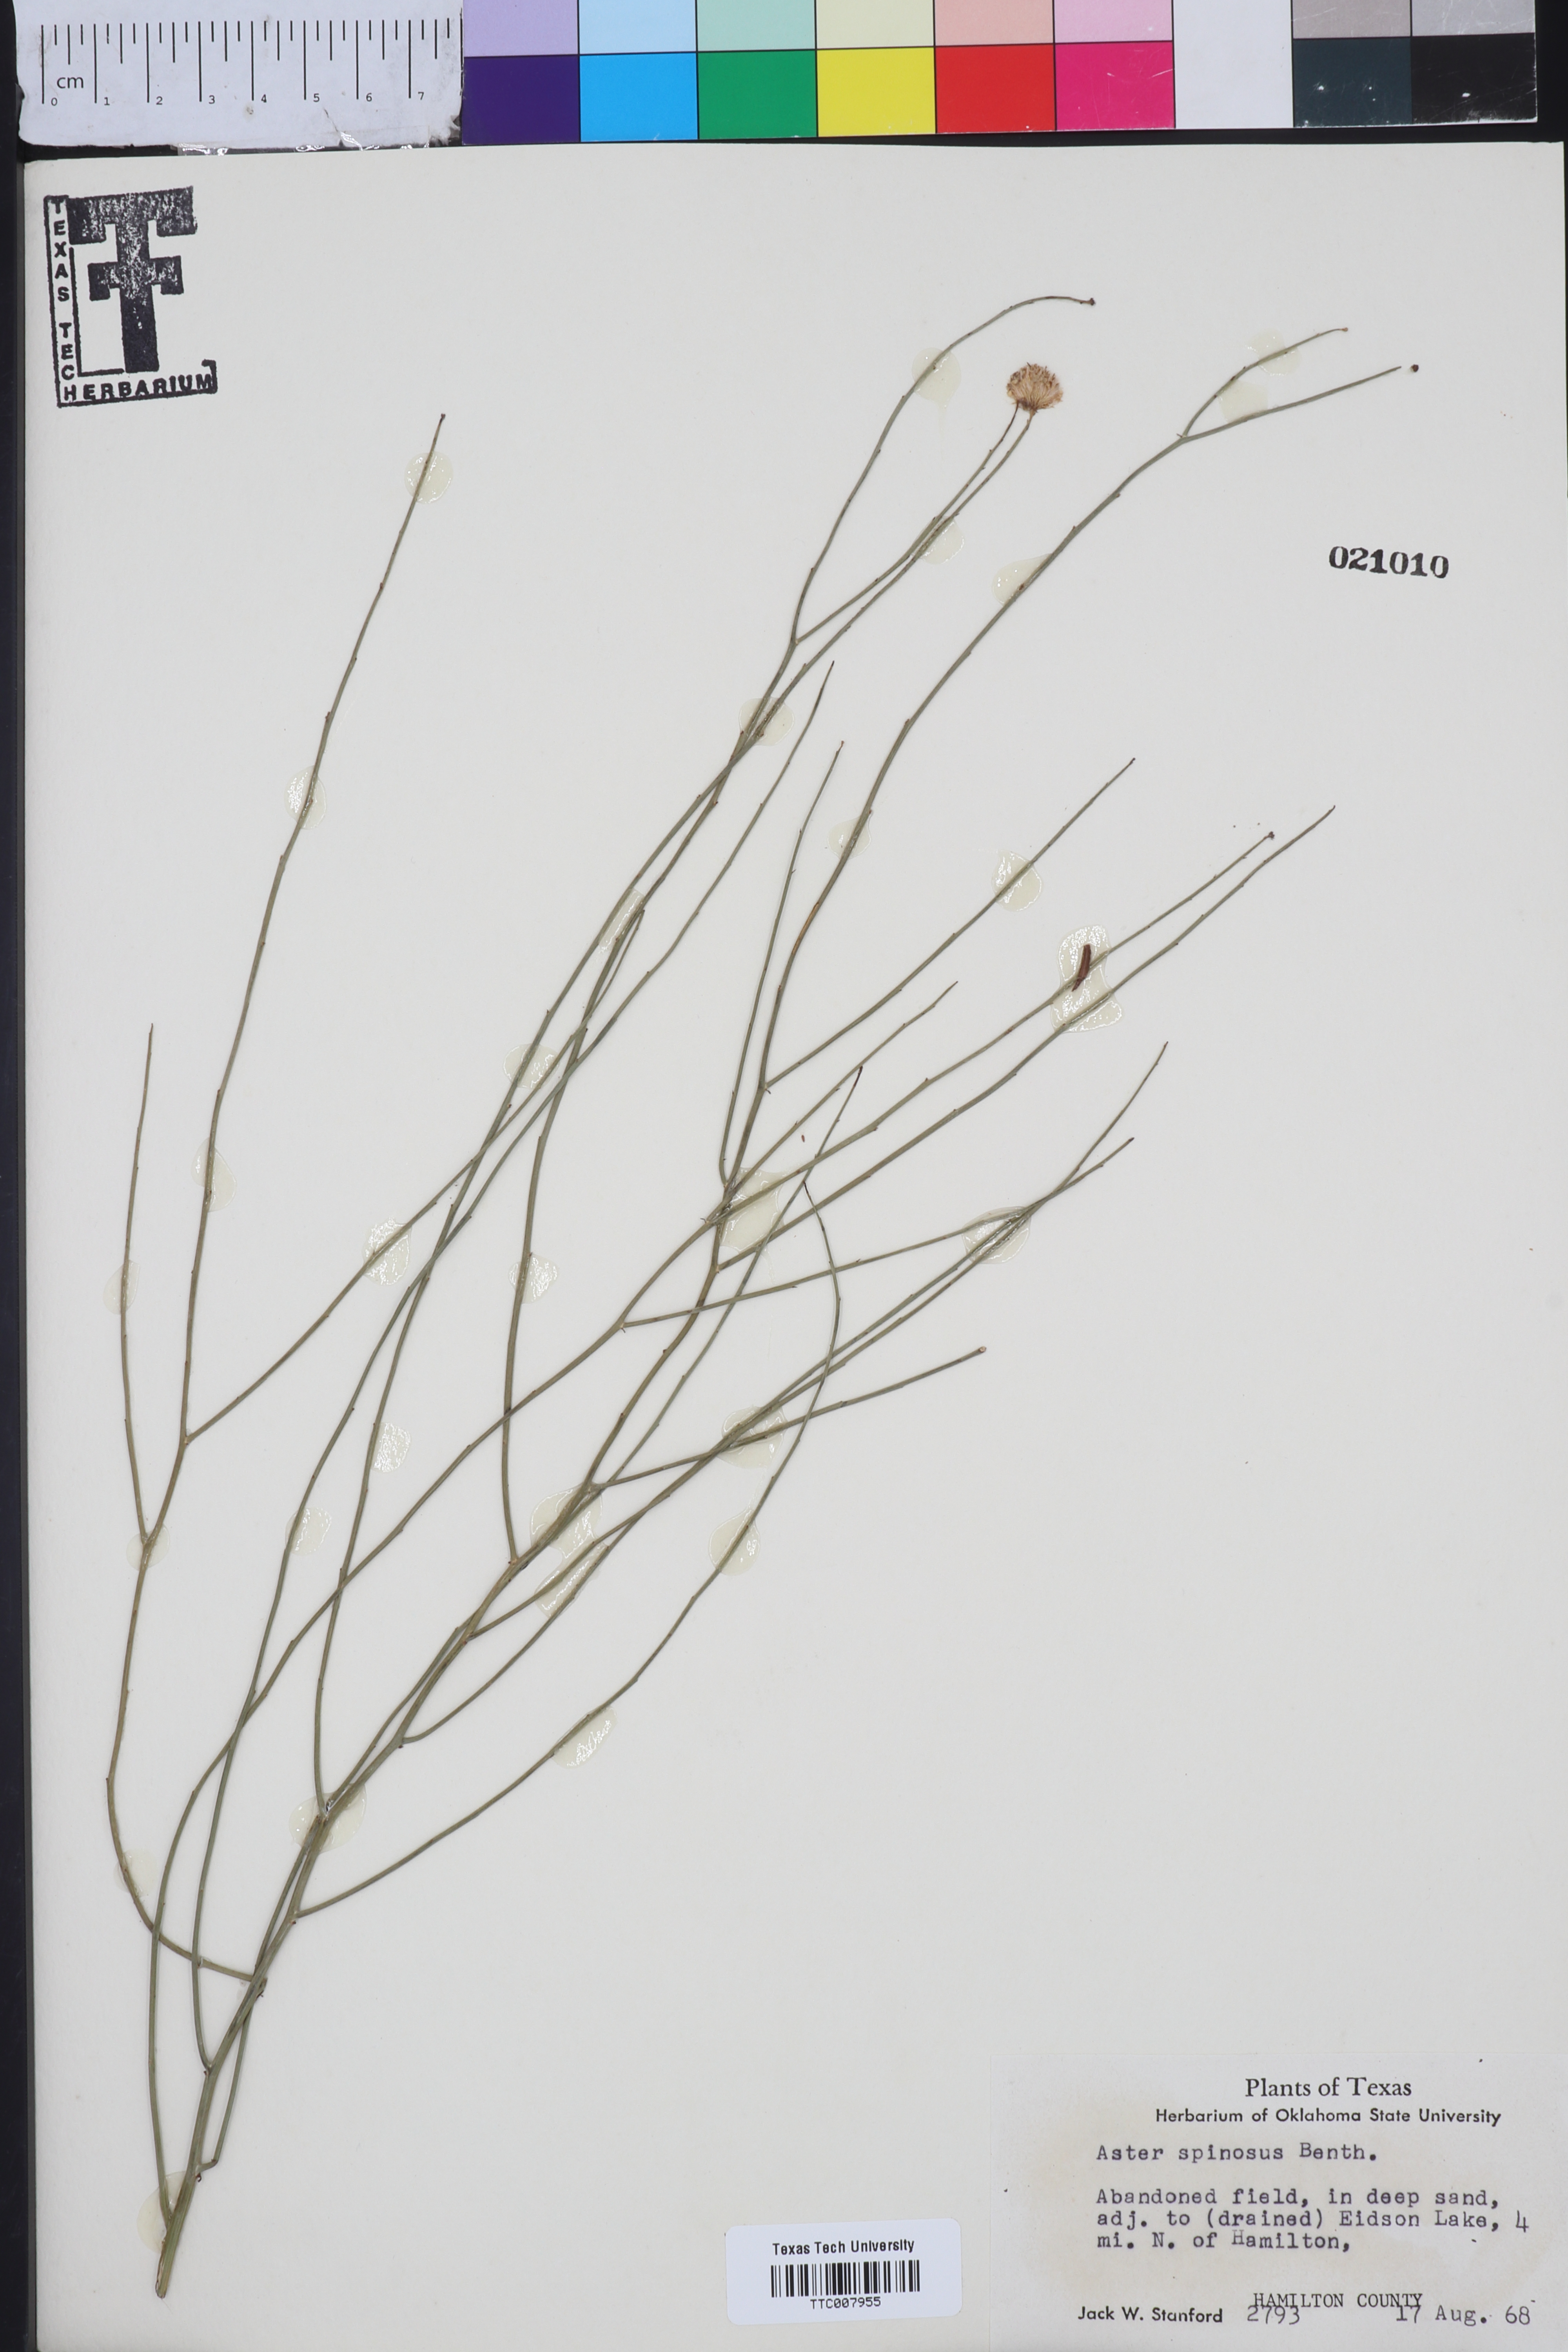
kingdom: Plantae
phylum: Tracheophyta
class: Magnoliopsida
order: Asterales
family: Asteraceae
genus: Chloracantha
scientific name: Chloracantha spinosa
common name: Mexican devilweed
